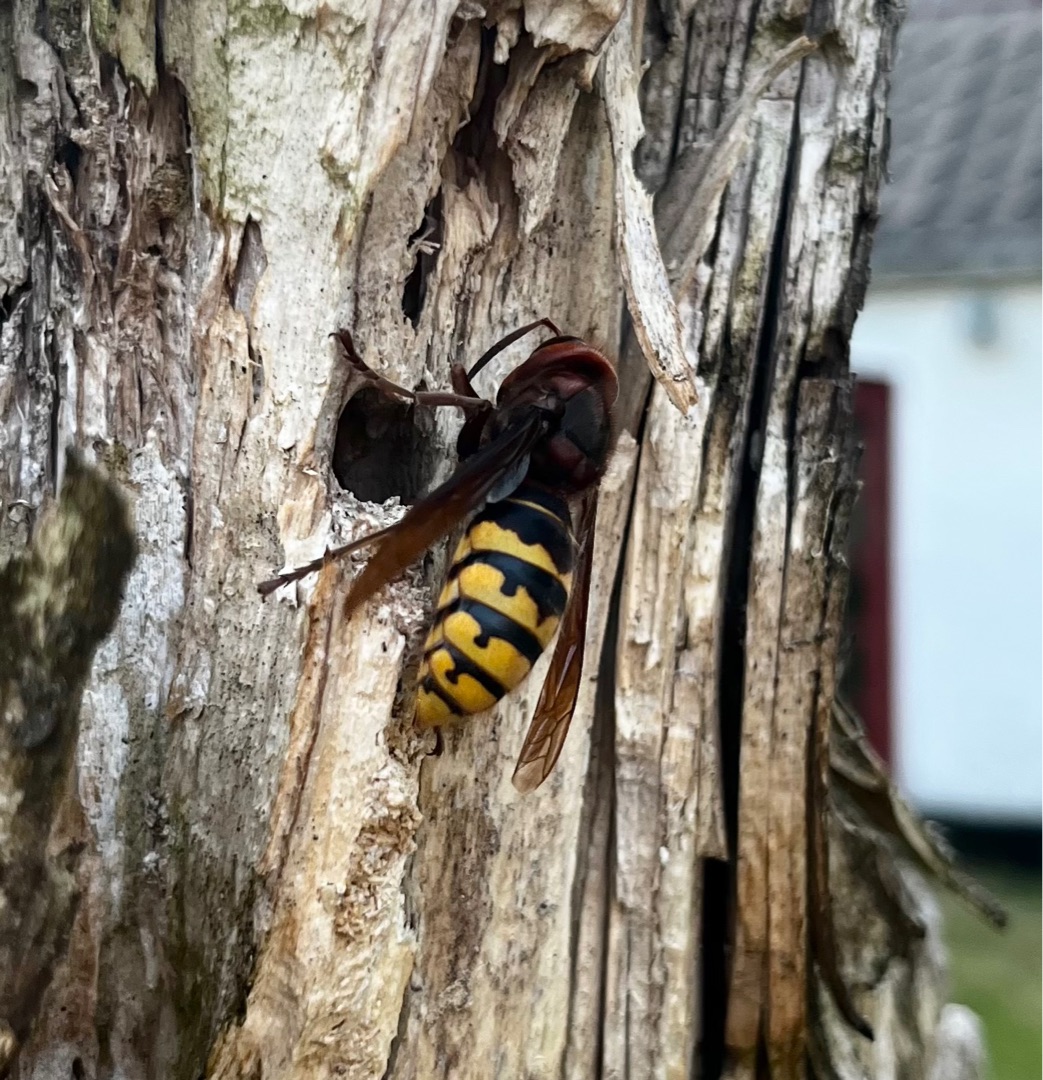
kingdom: Animalia
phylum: Arthropoda
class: Insecta
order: Hymenoptera
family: Vespidae
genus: Vespa
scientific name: Vespa crabro
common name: Stor gedehams
